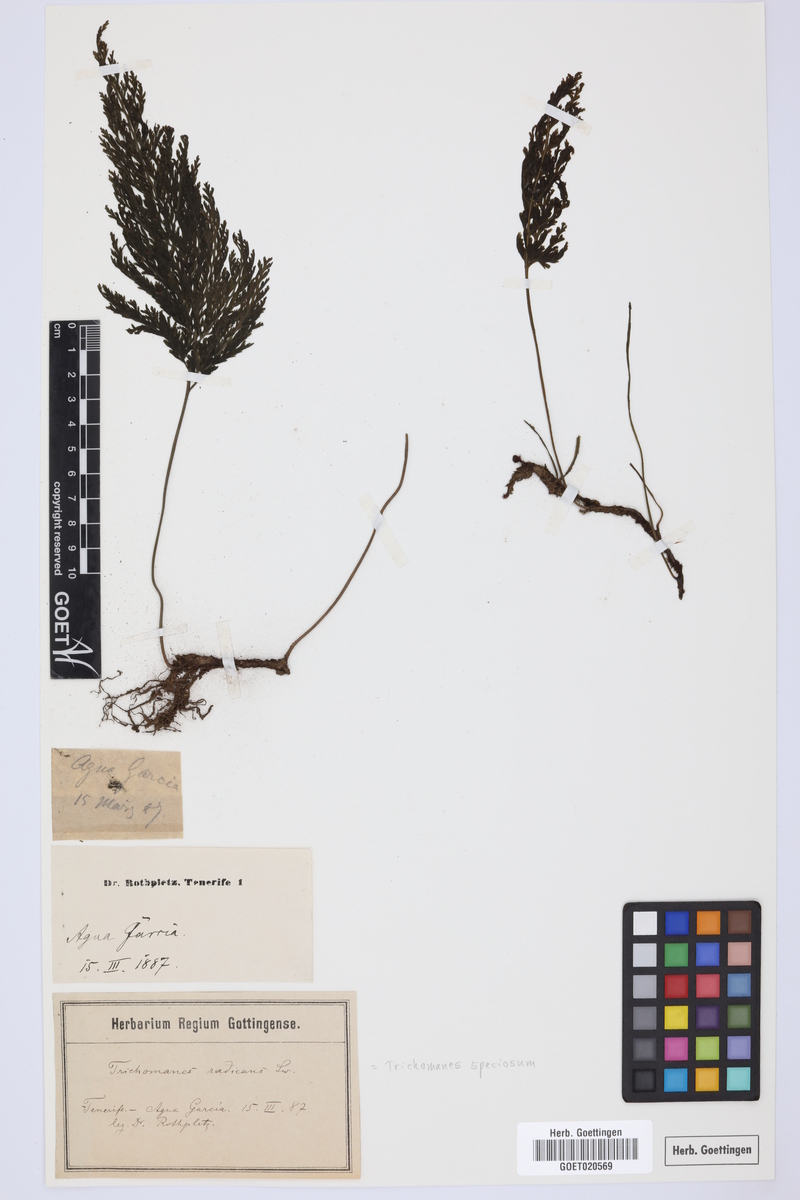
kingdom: Plantae
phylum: Tracheophyta
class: Polypodiopsida
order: Hymenophyllales
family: Hymenophyllaceae
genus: Vandenboschia
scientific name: Vandenboschia speciosa
